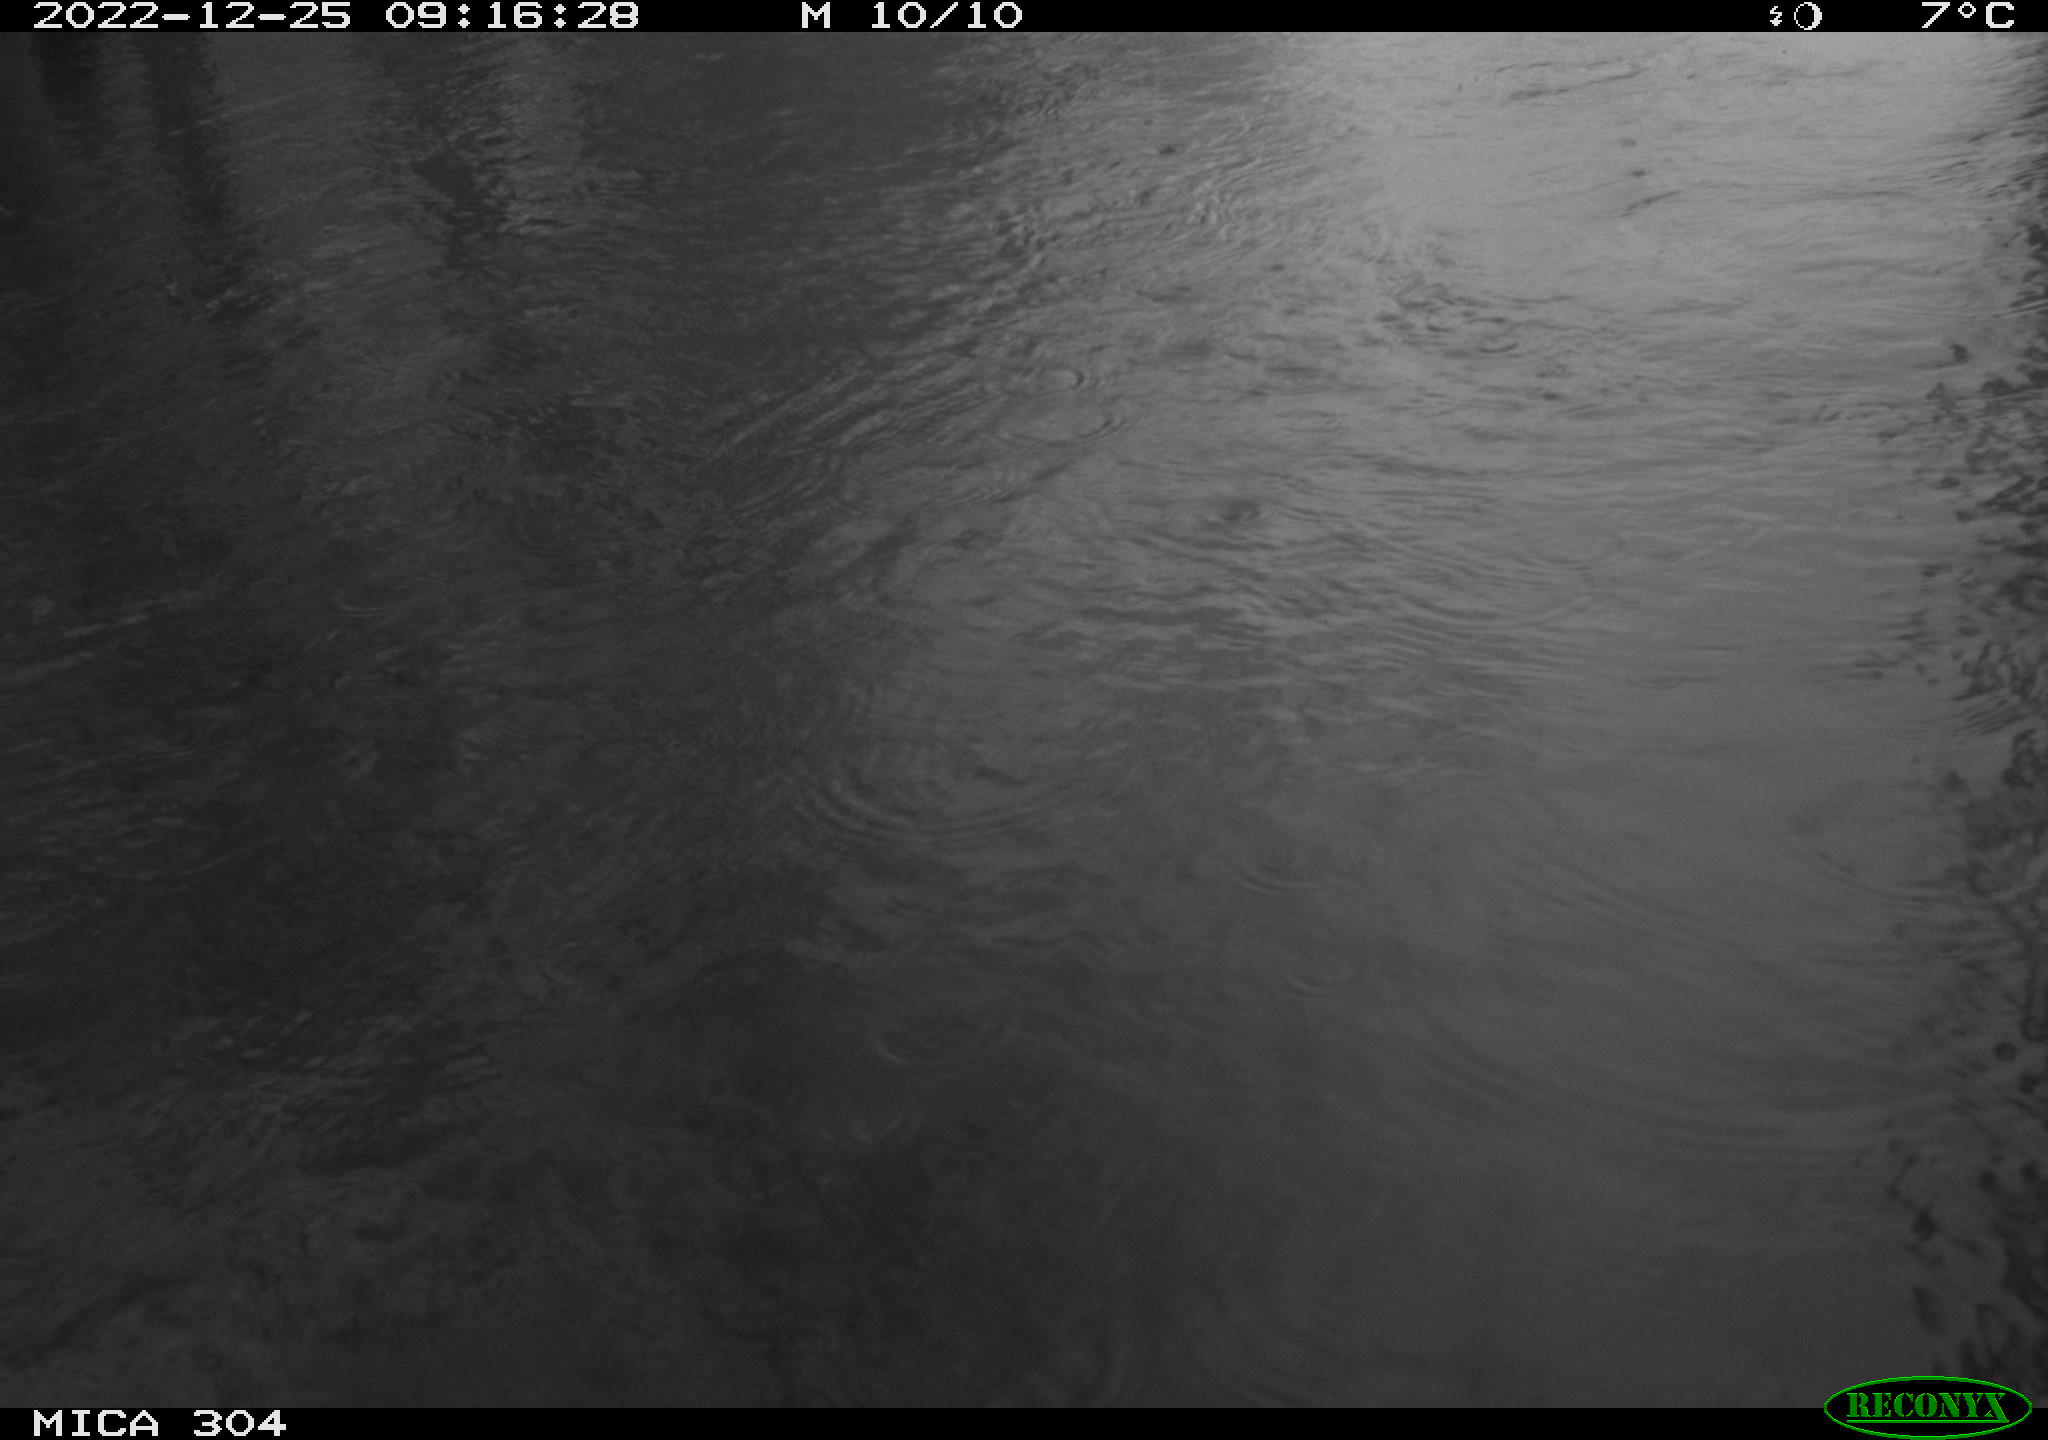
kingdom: Animalia
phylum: Chordata
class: Aves
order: Gruiformes
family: Rallidae
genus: Fulica
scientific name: Fulica atra
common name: Eurasian coot
